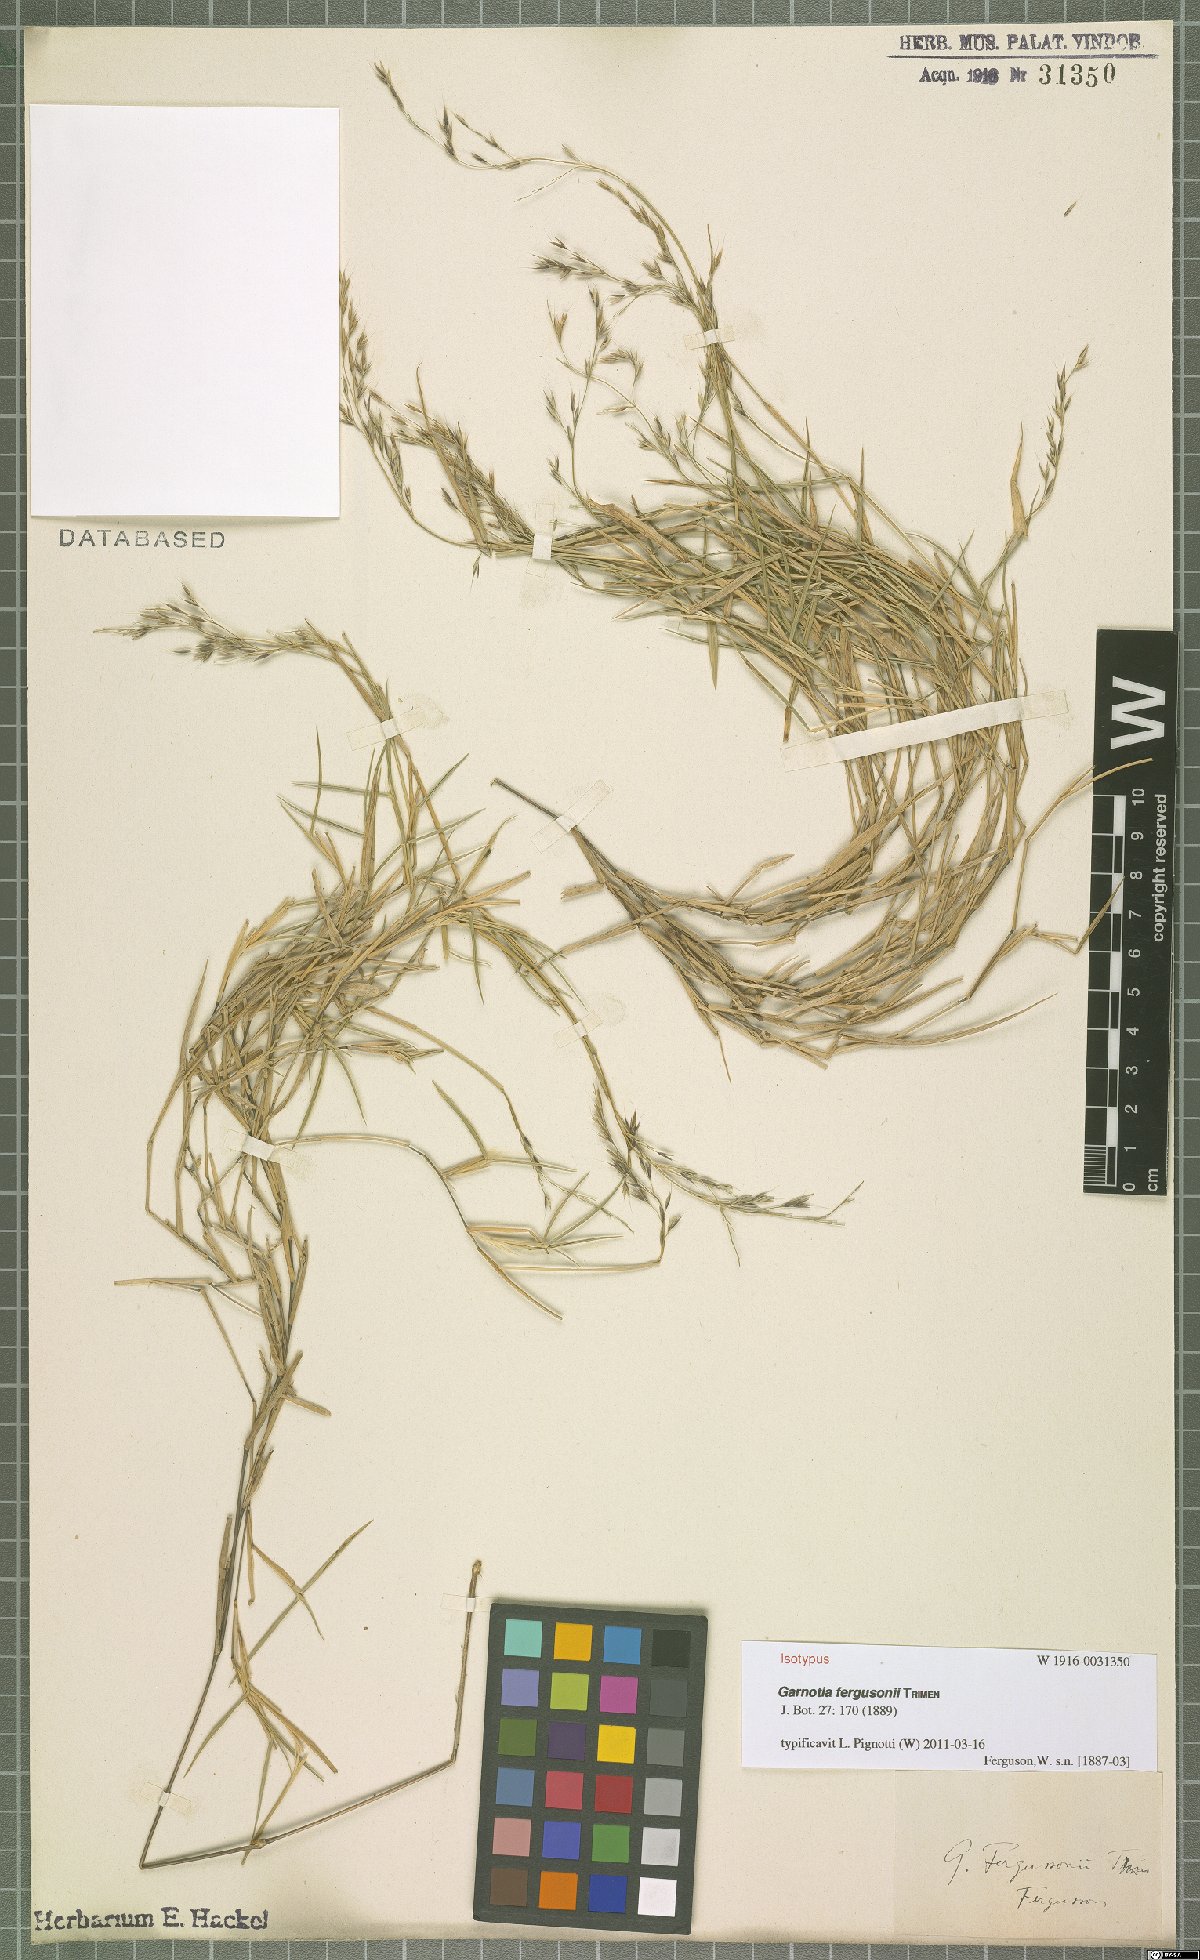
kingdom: Plantae
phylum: Tracheophyta
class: Liliopsida
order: Poales
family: Poaceae
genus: Garnotia
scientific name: Garnotia fergusonii
